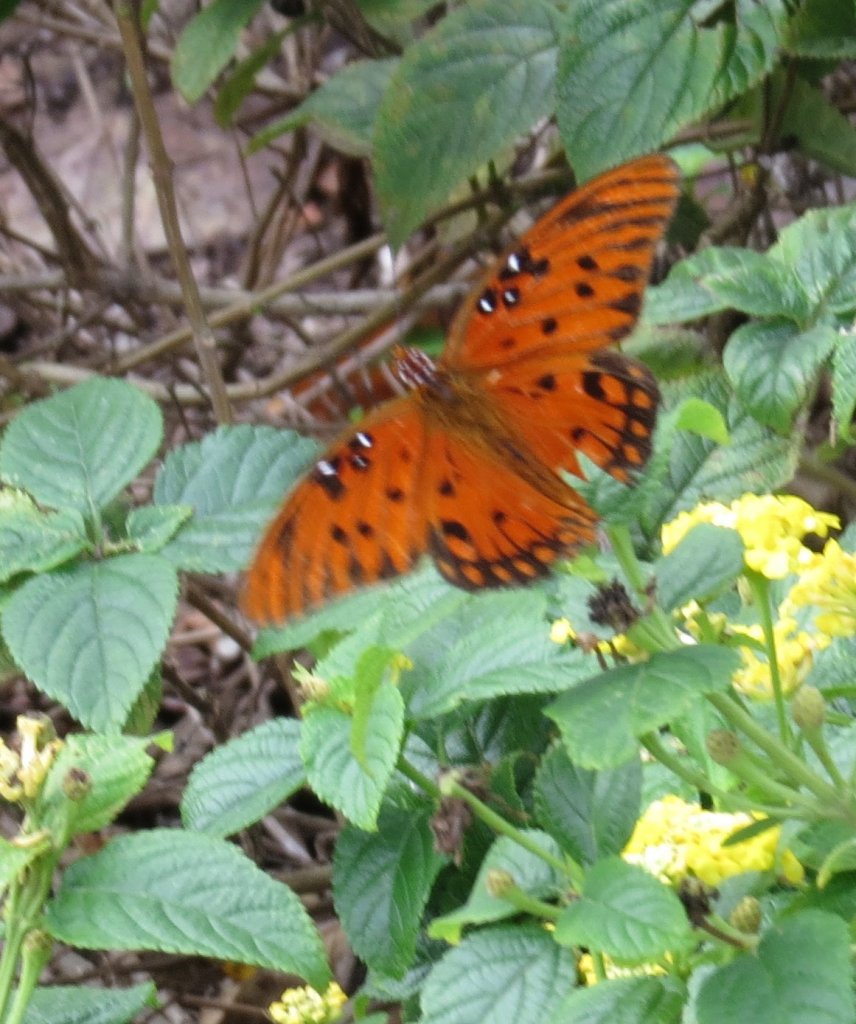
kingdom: Animalia
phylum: Arthropoda
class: Insecta
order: Lepidoptera
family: Nymphalidae
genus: Dione
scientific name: Dione vanillae
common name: Gulf Fritillary
